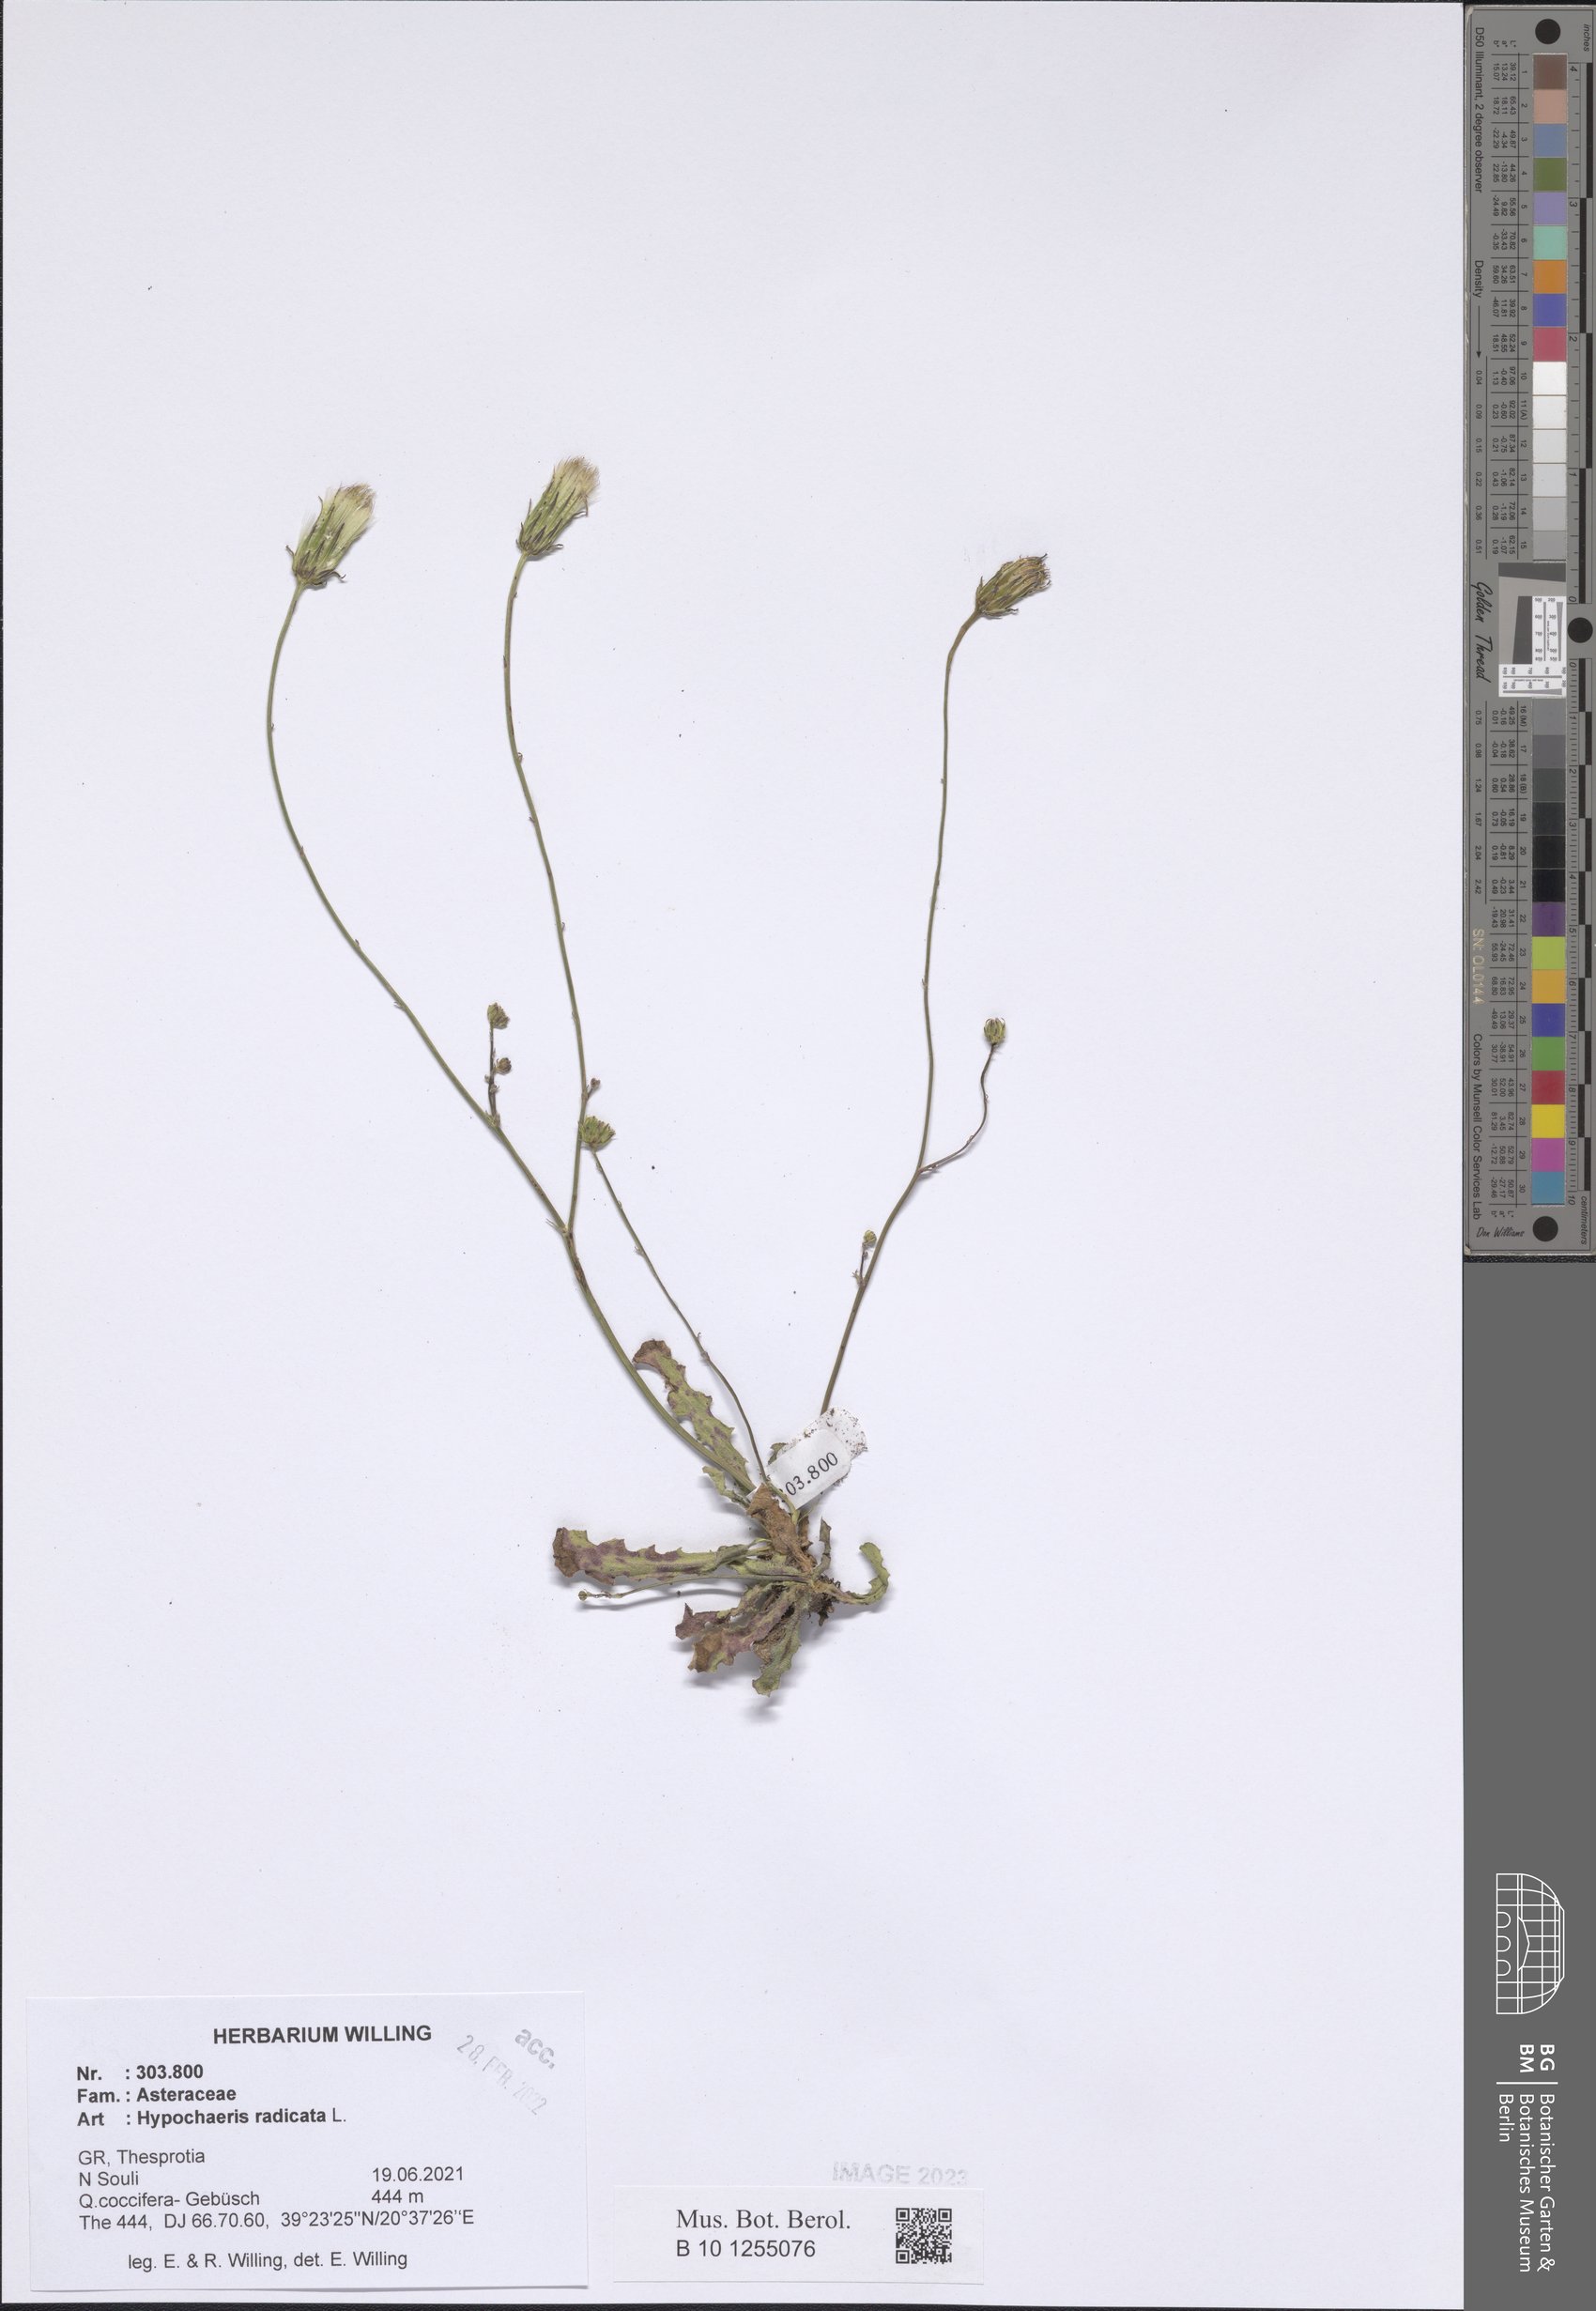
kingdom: Plantae
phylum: Tracheophyta
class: Magnoliopsida
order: Asterales
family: Asteraceae
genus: Hypochaeris
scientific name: Hypochaeris radicata
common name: Flatweed
